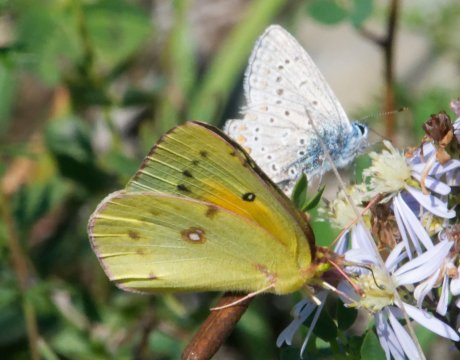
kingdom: Animalia
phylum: Arthropoda
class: Insecta
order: Lepidoptera
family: Pieridae
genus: Colias
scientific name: Colias eurytheme
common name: Orange Sulphur
